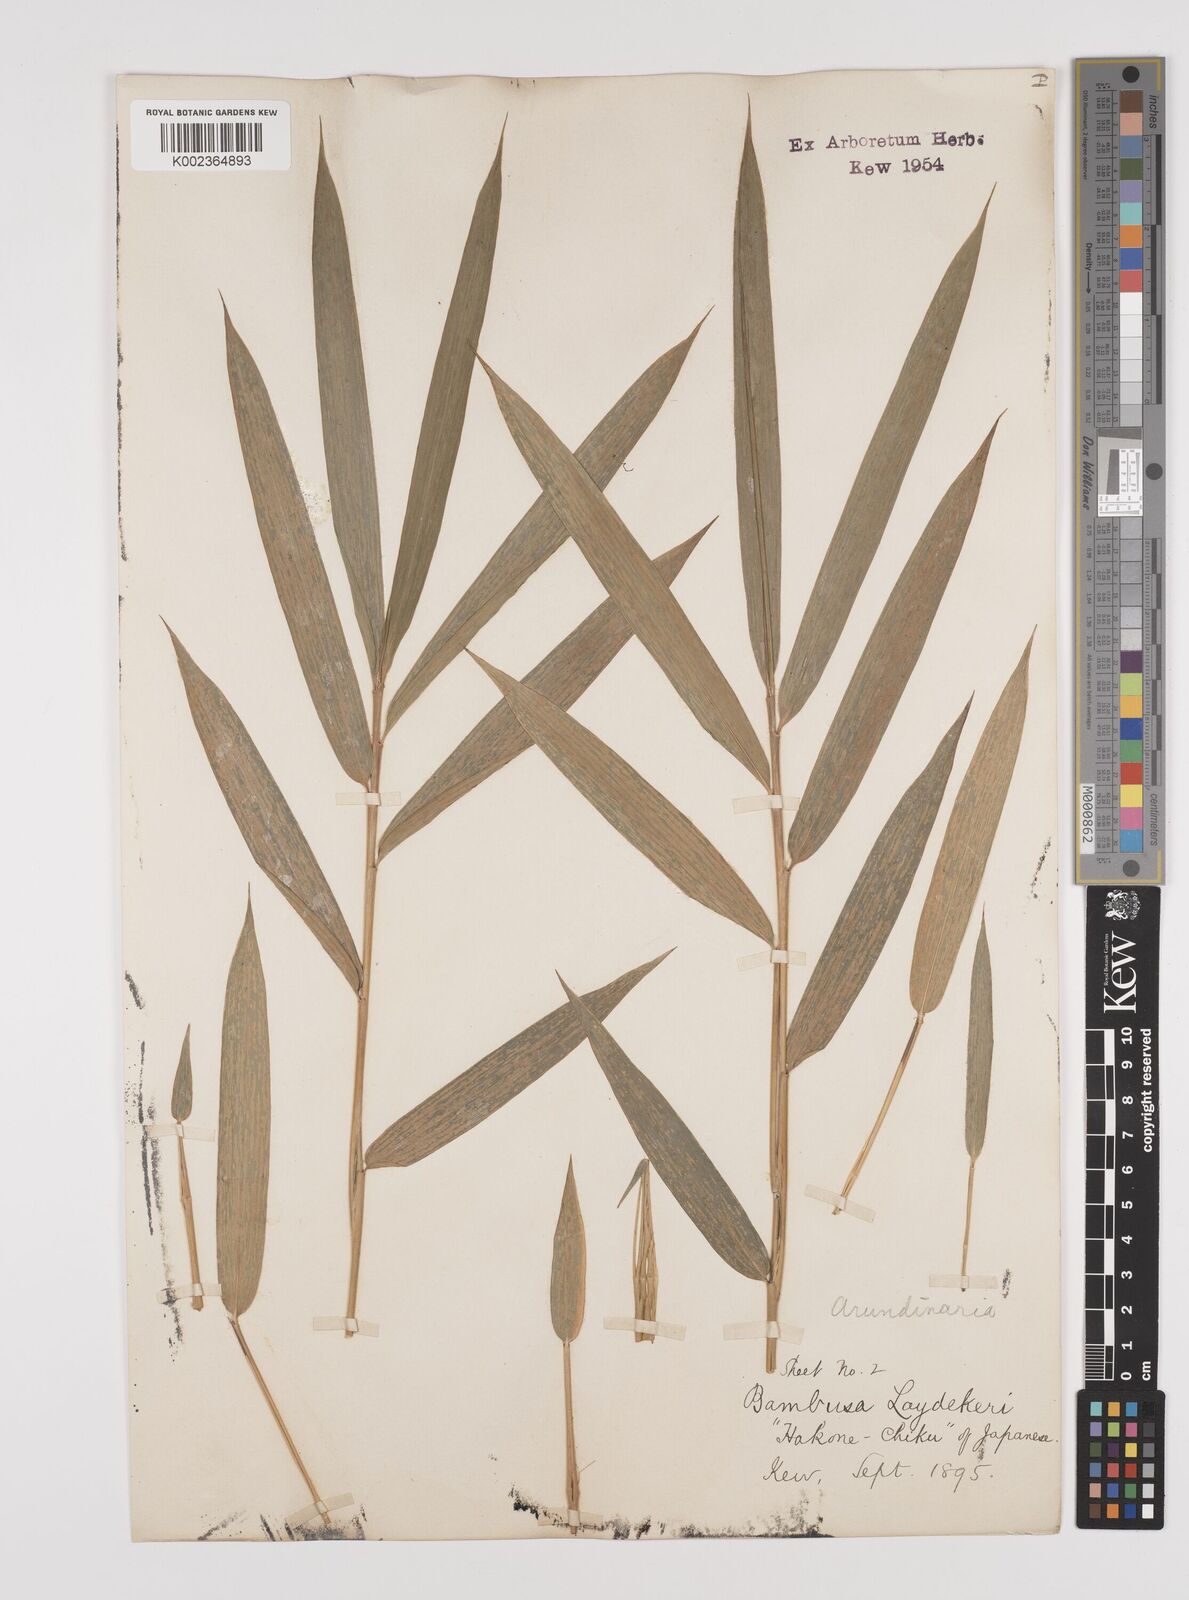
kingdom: Plantae
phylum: Tracheophyta
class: Liliopsida
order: Poales
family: Poaceae
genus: Pleioblastus
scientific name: Pleioblastus argenteostriatus
